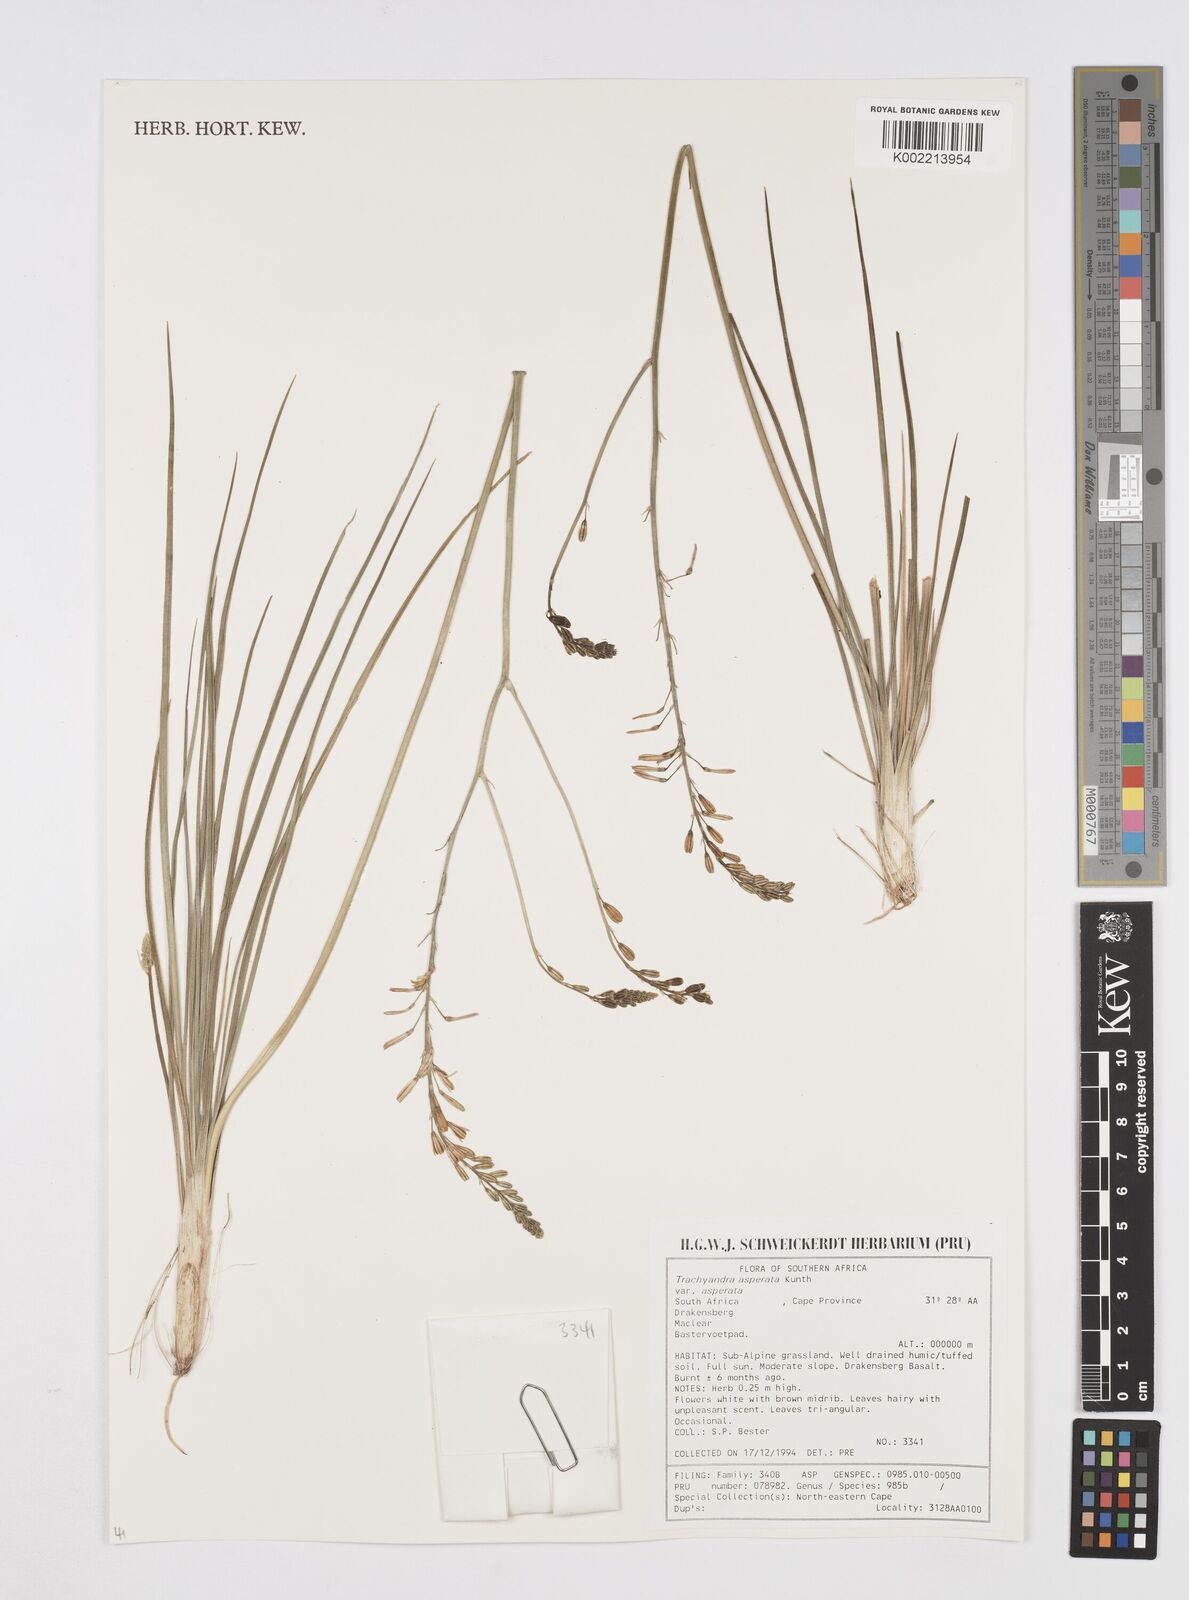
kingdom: Plantae
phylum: Tracheophyta
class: Liliopsida
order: Asparagales
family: Asphodelaceae
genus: Trachyandra
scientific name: Trachyandra asperata
